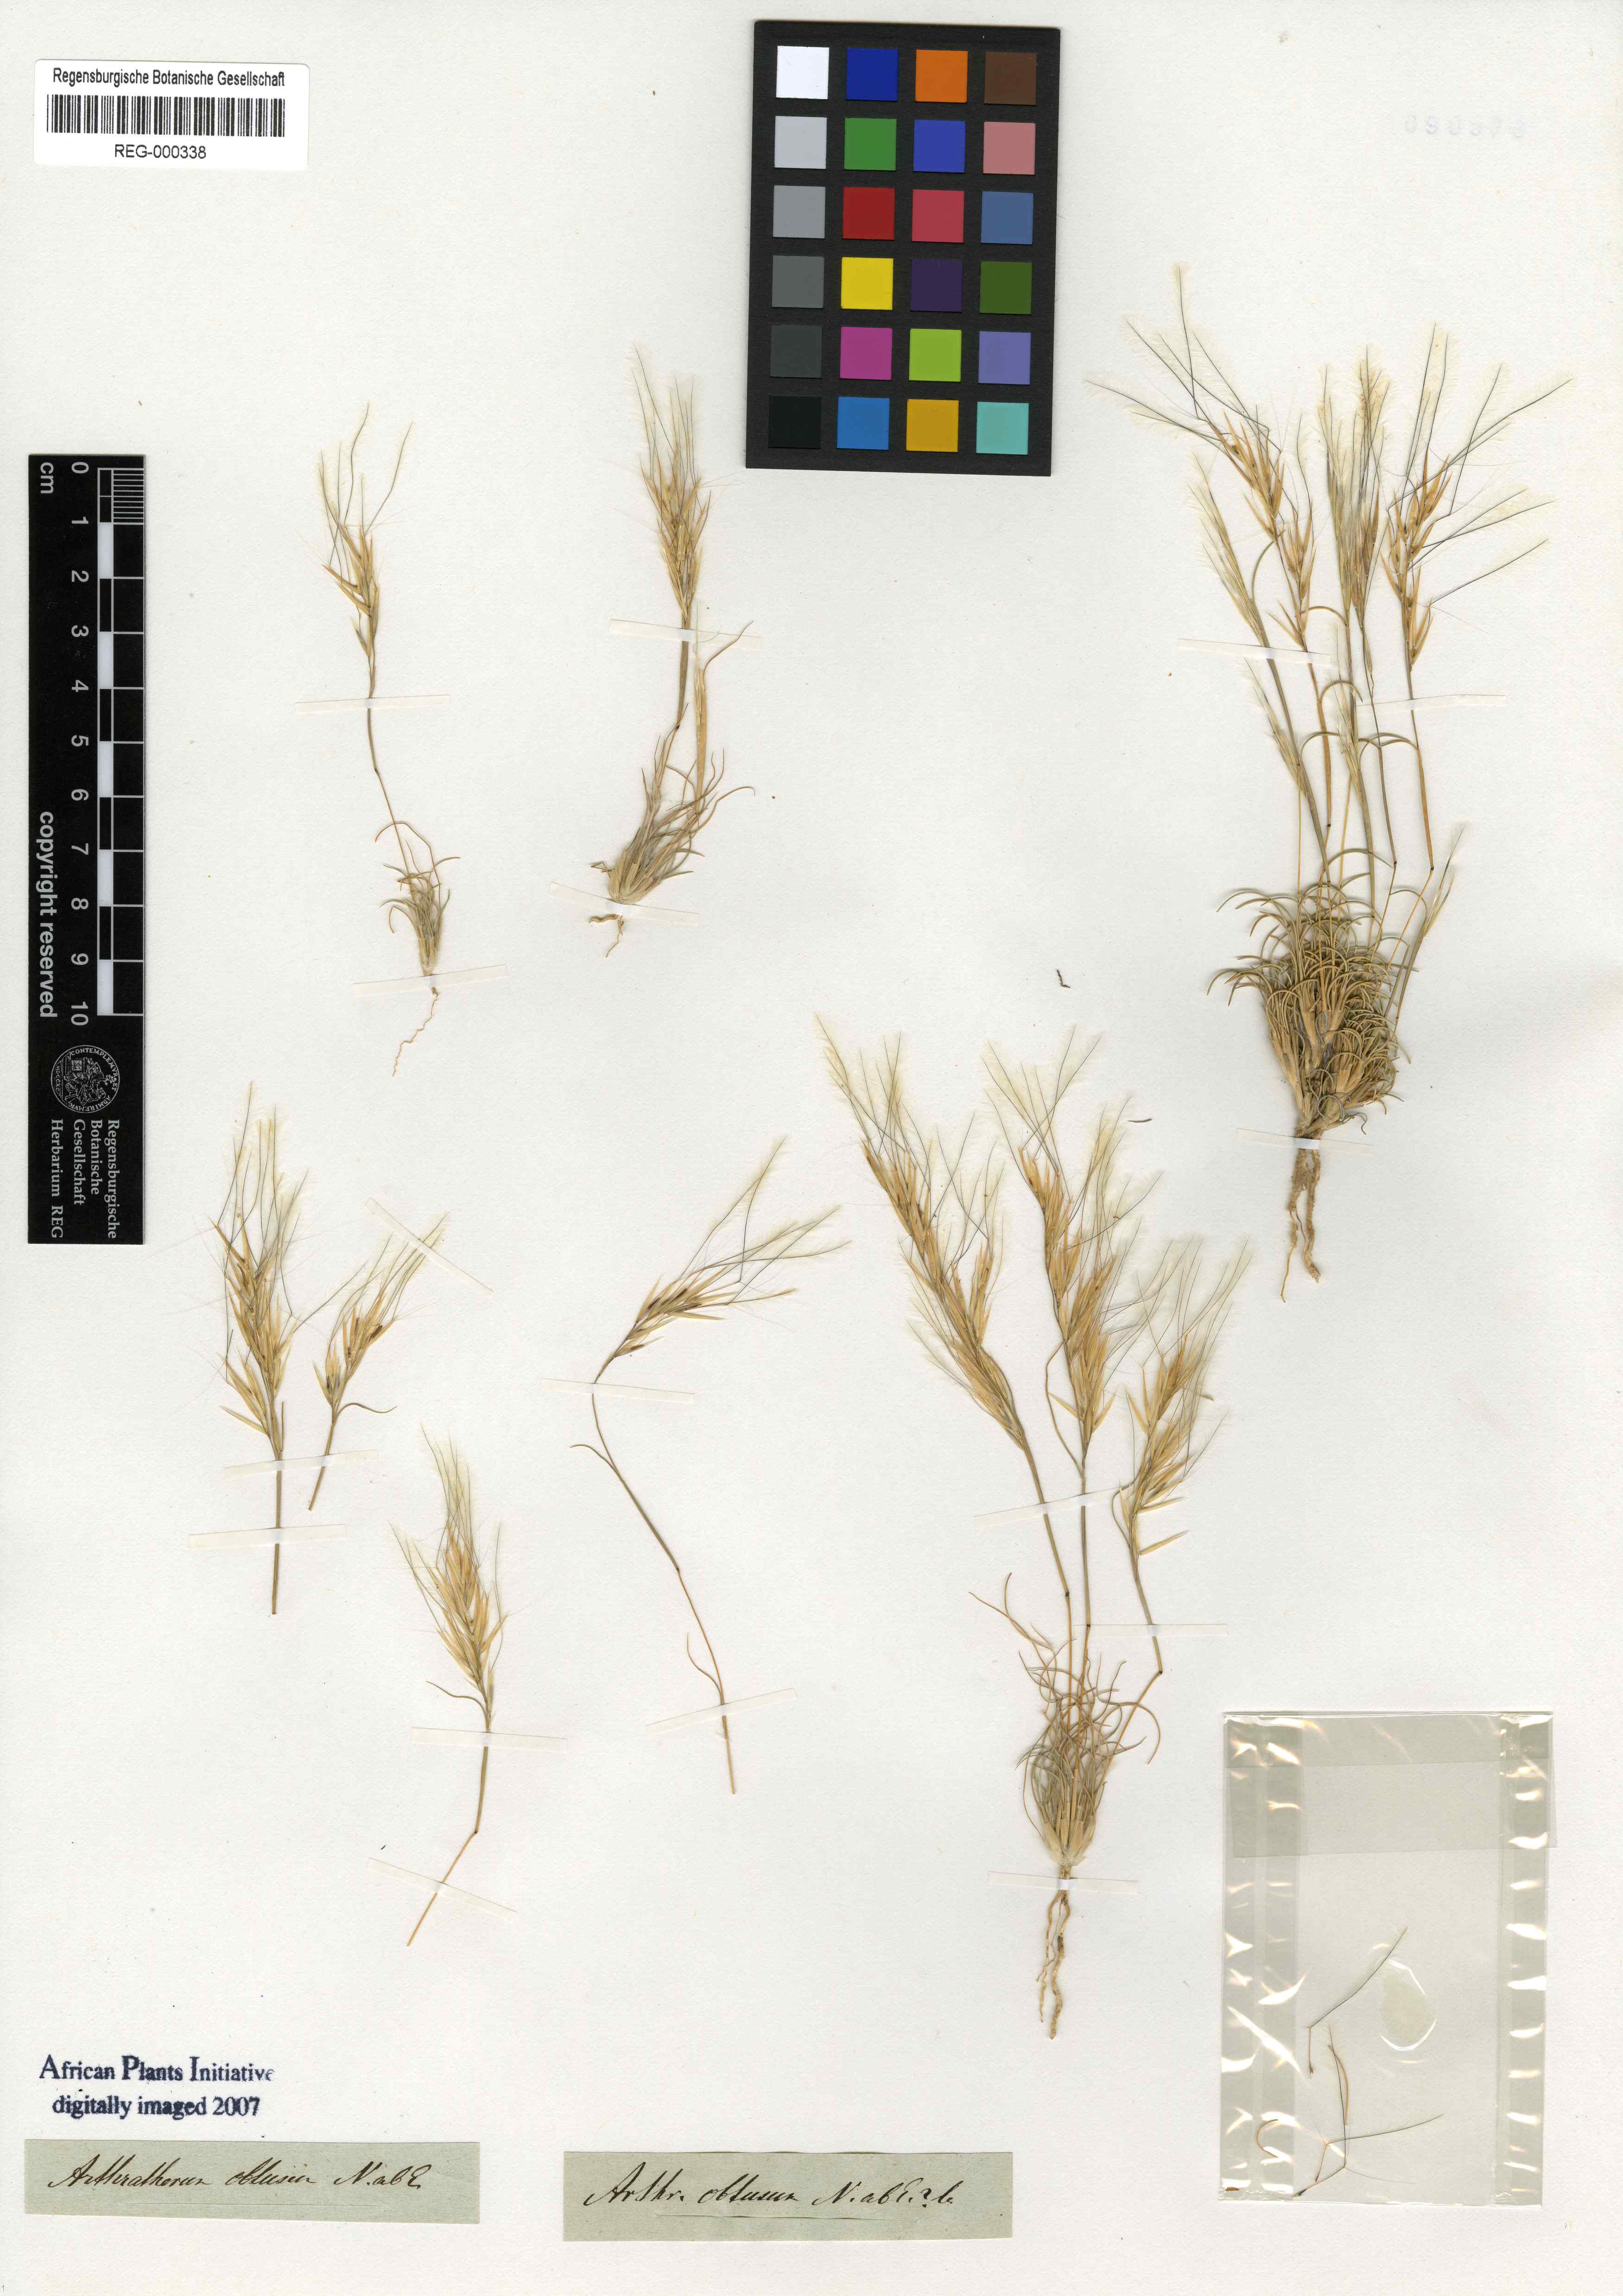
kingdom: Plantae
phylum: Tracheophyta
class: Liliopsida
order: Poales
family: Poaceae
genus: Stipagrostis
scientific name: Stipagrostis obtusa
